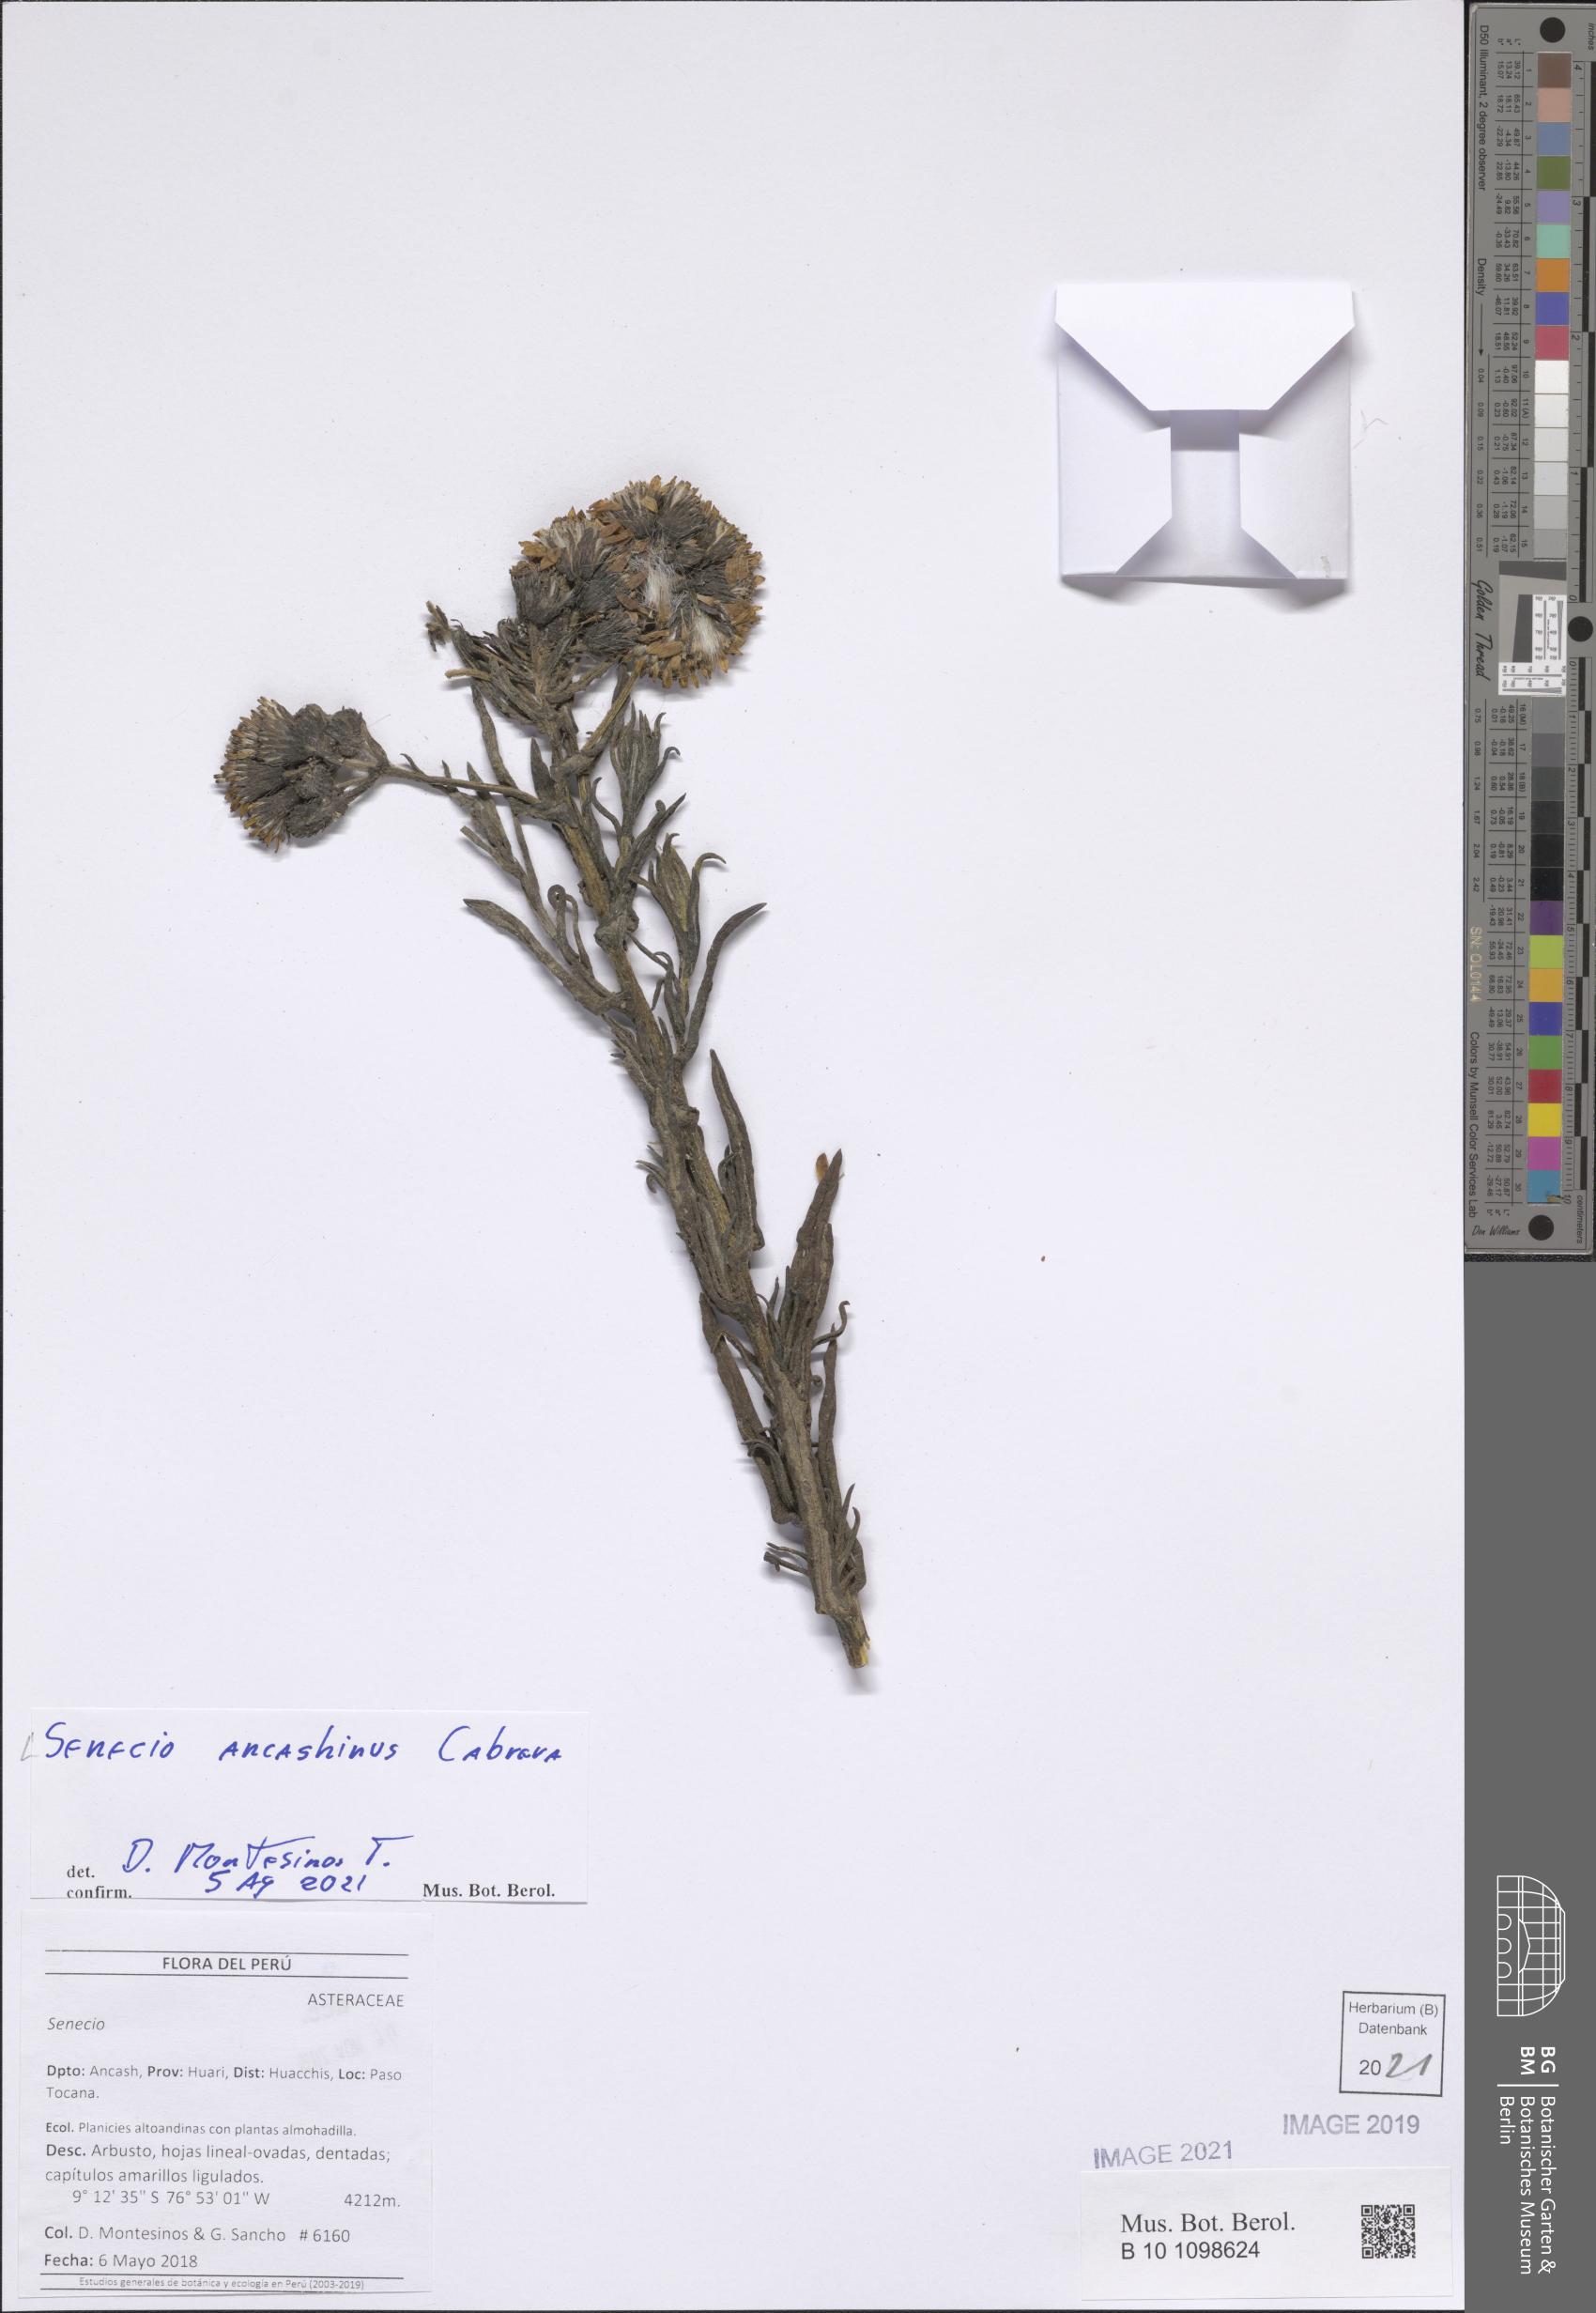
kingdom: Plantae
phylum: Tracheophyta
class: Magnoliopsida
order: Asterales
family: Asteraceae
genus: Senecio
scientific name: Senecio ancashinus
